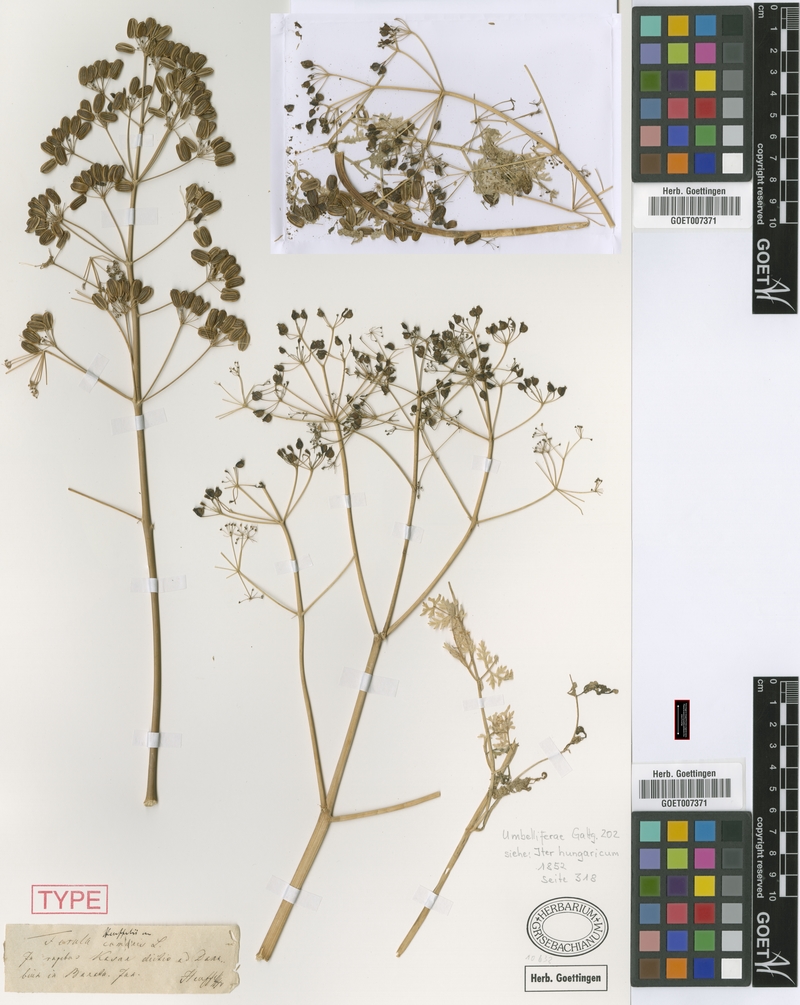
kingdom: Plantae
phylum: Tracheophyta
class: Magnoliopsida
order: Apiales
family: Apiaceae
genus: Ferula
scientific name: Ferula heuffelii
